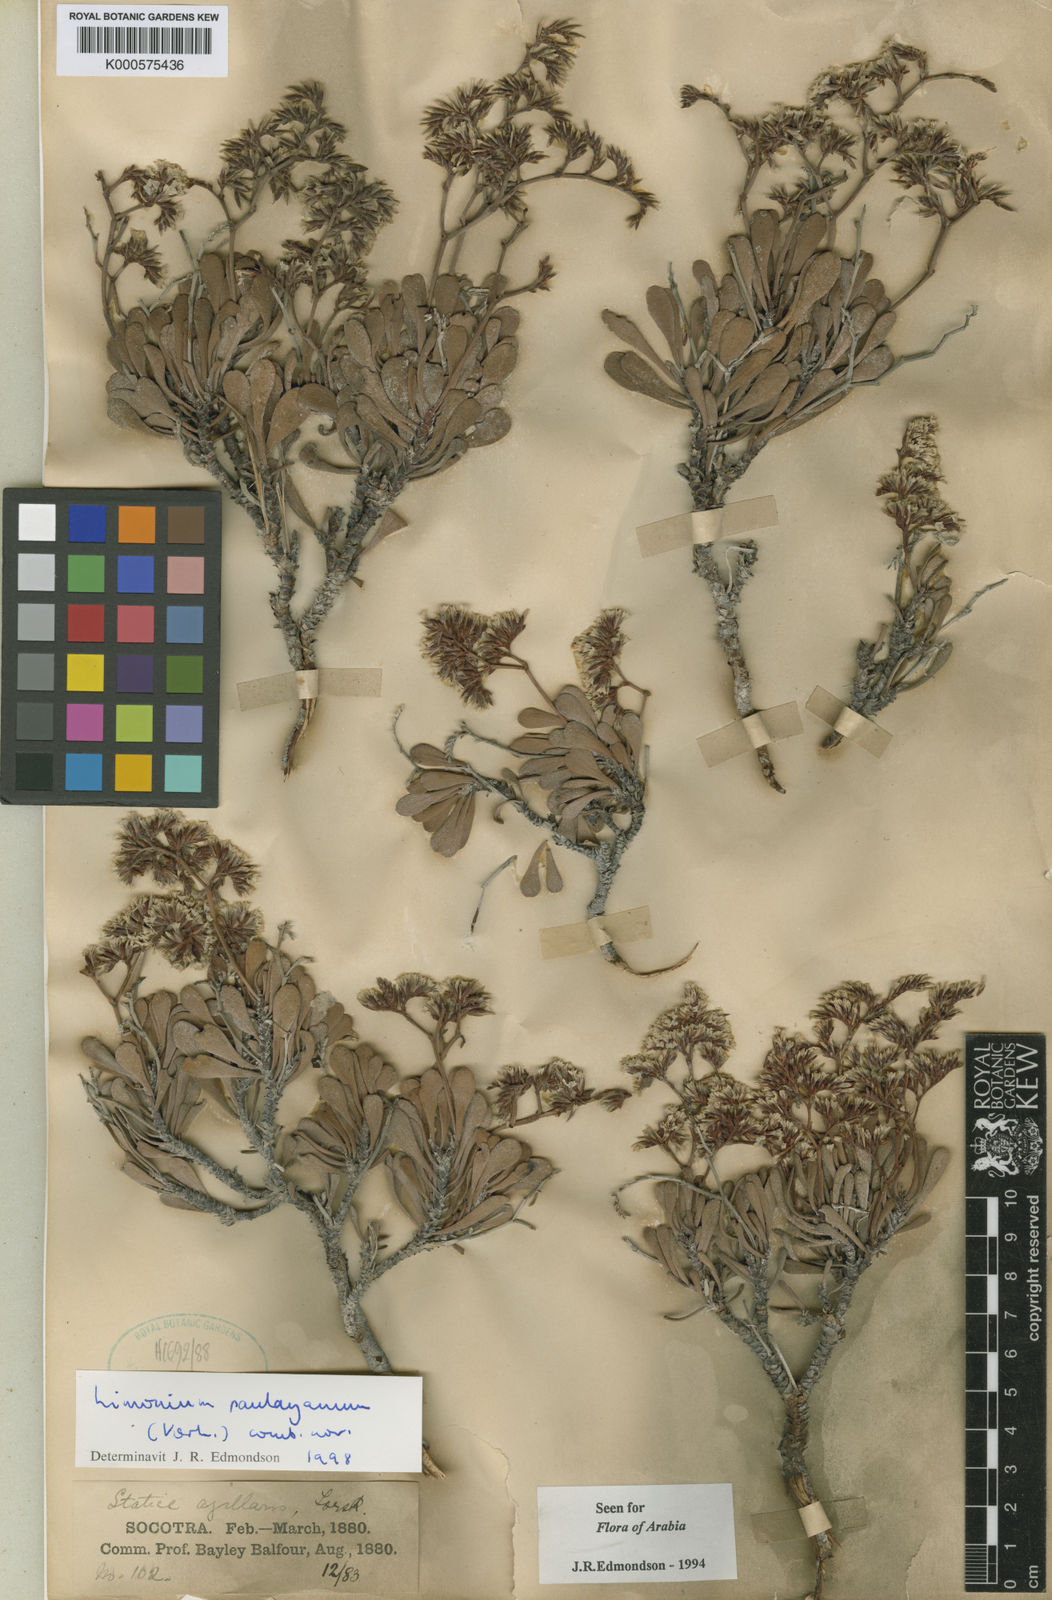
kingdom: Plantae
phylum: Tracheophyta
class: Magnoliopsida
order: Caryophyllales
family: Plumbaginaceae
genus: Limonium
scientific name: Limonium paulayanum
